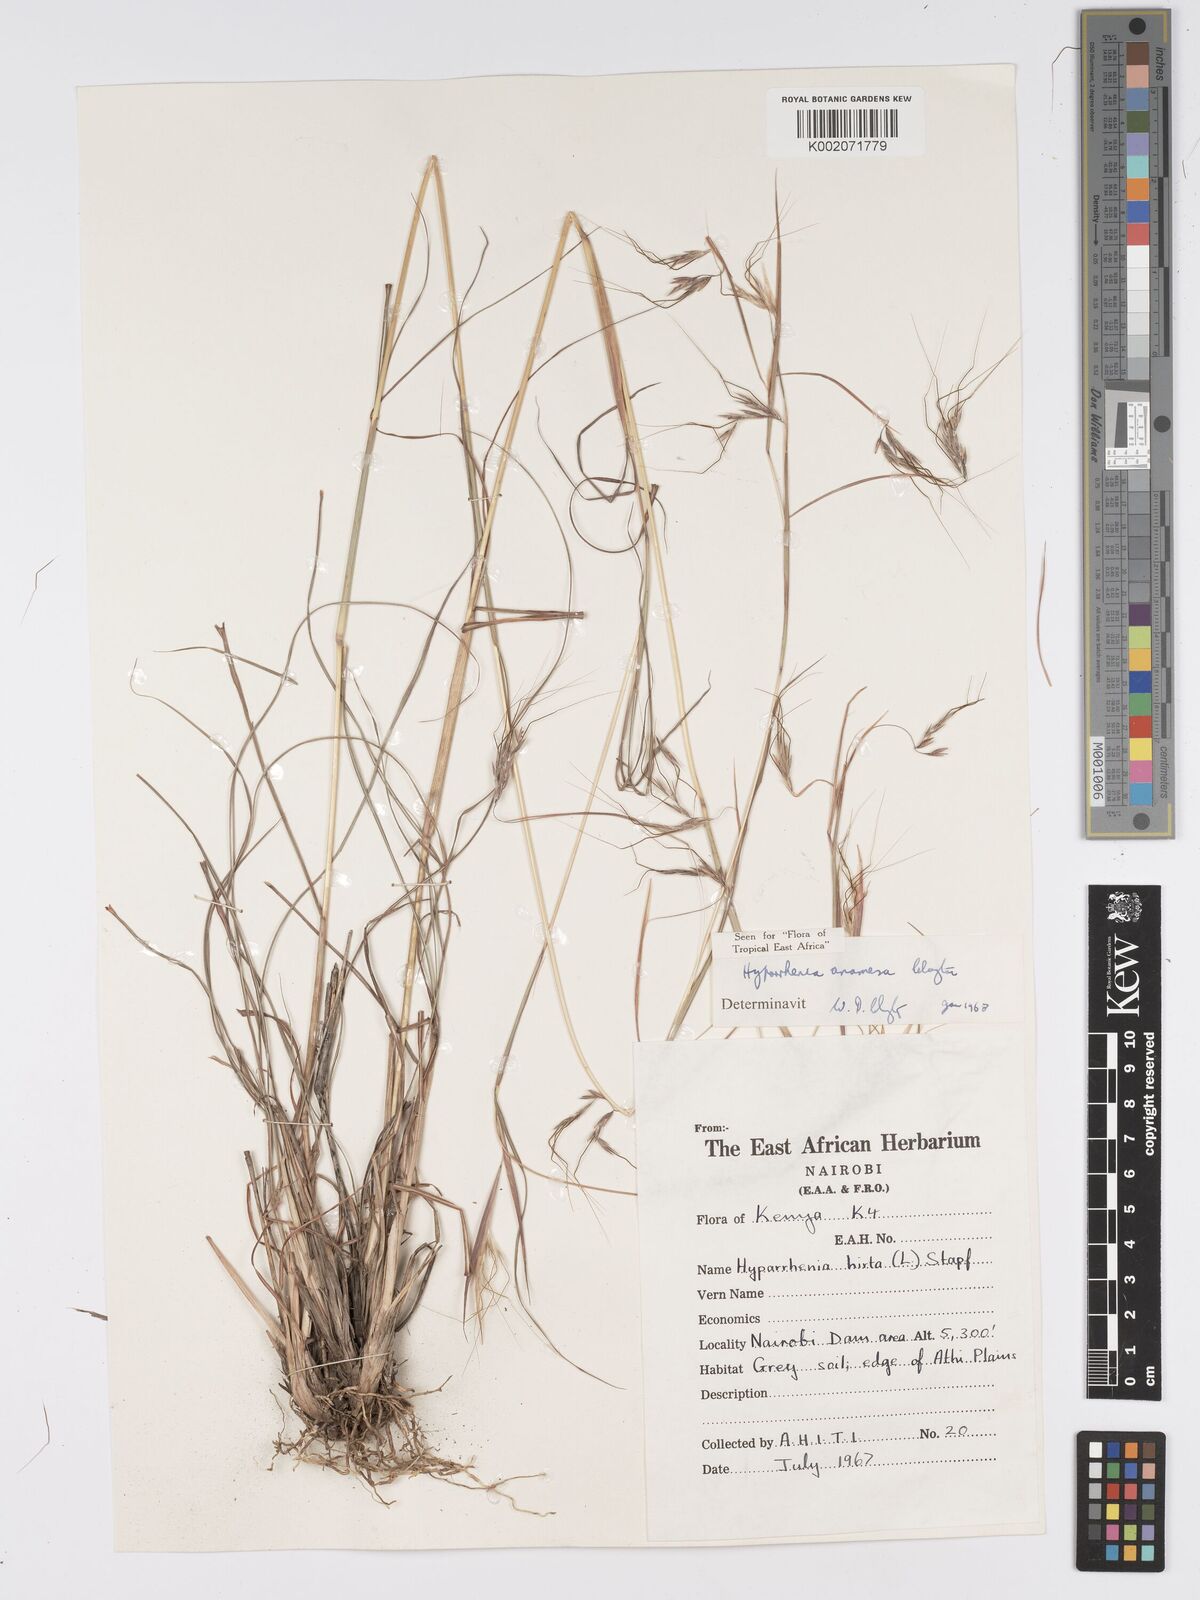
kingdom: Plantae
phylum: Tracheophyta
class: Liliopsida
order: Poales
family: Poaceae
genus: Hyparrhenia
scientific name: Hyparrhenia anamesa
